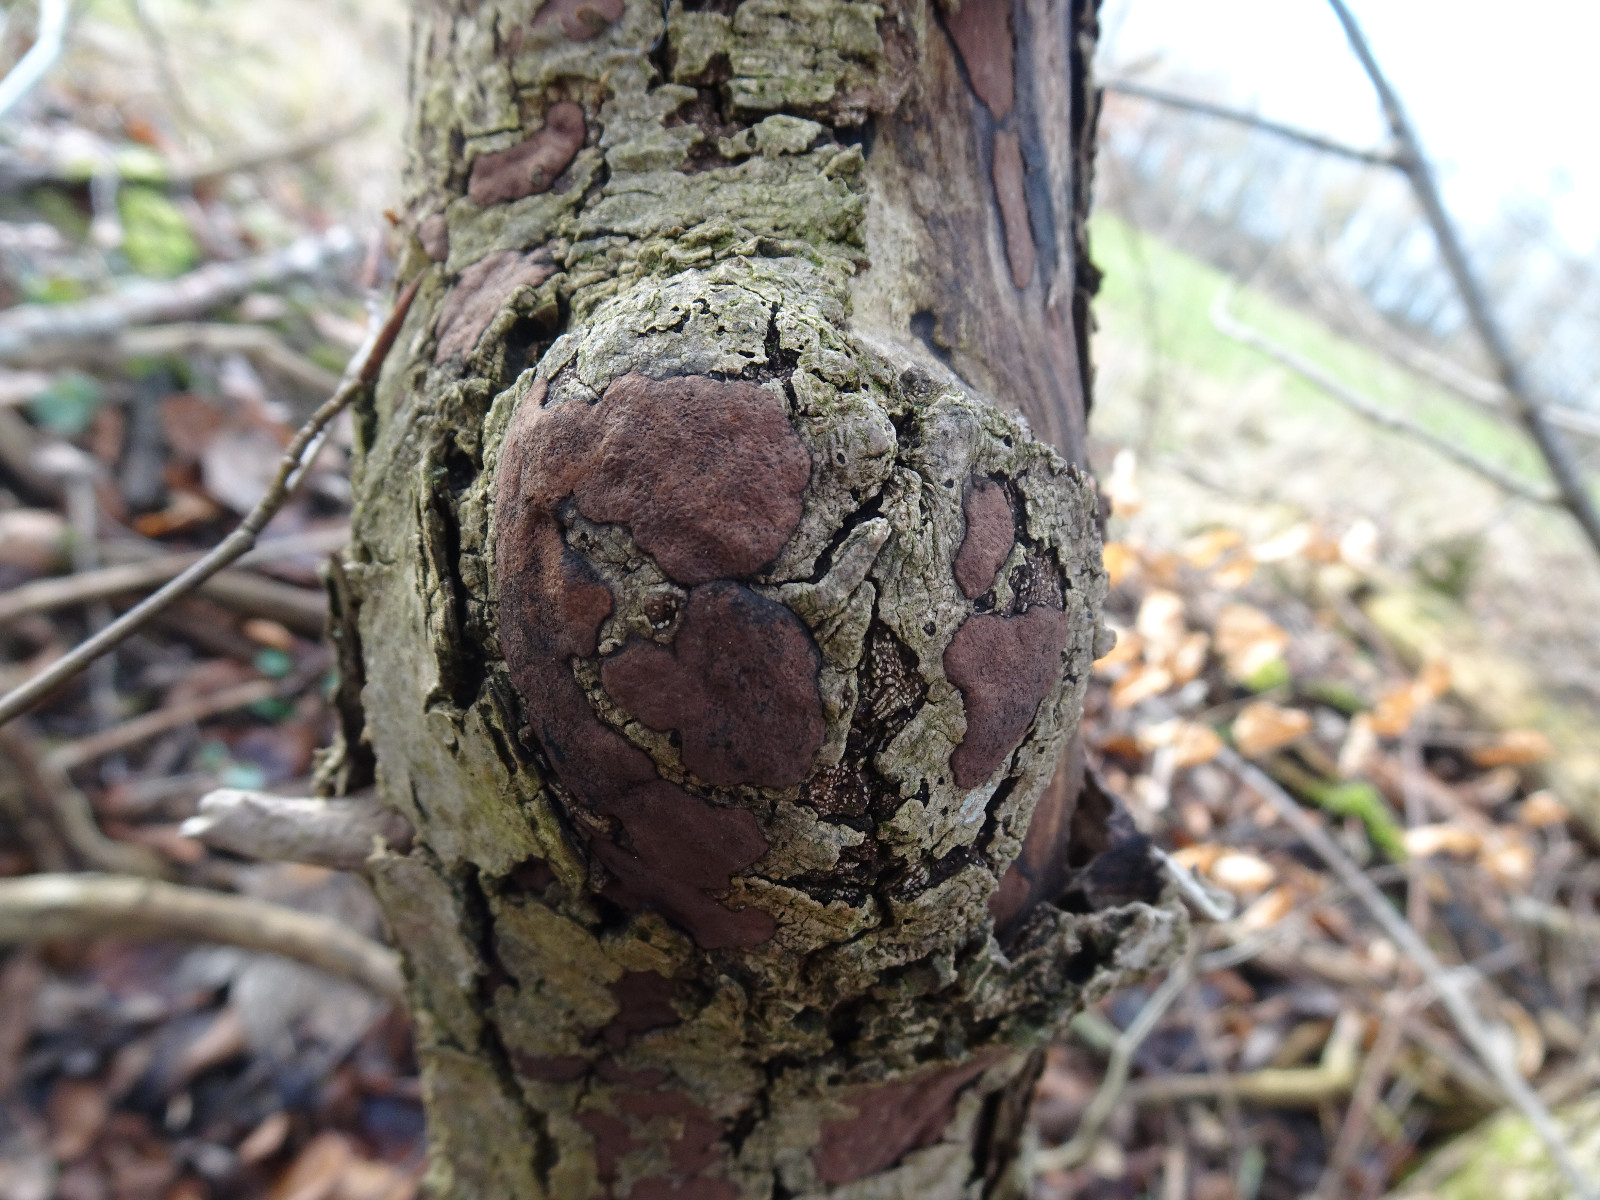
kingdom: Fungi
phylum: Ascomycota
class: Sordariomycetes
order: Xylariales
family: Hypoxylaceae
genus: Hypoxylon
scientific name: Hypoxylon petriniae
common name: nedsænket kulbær
